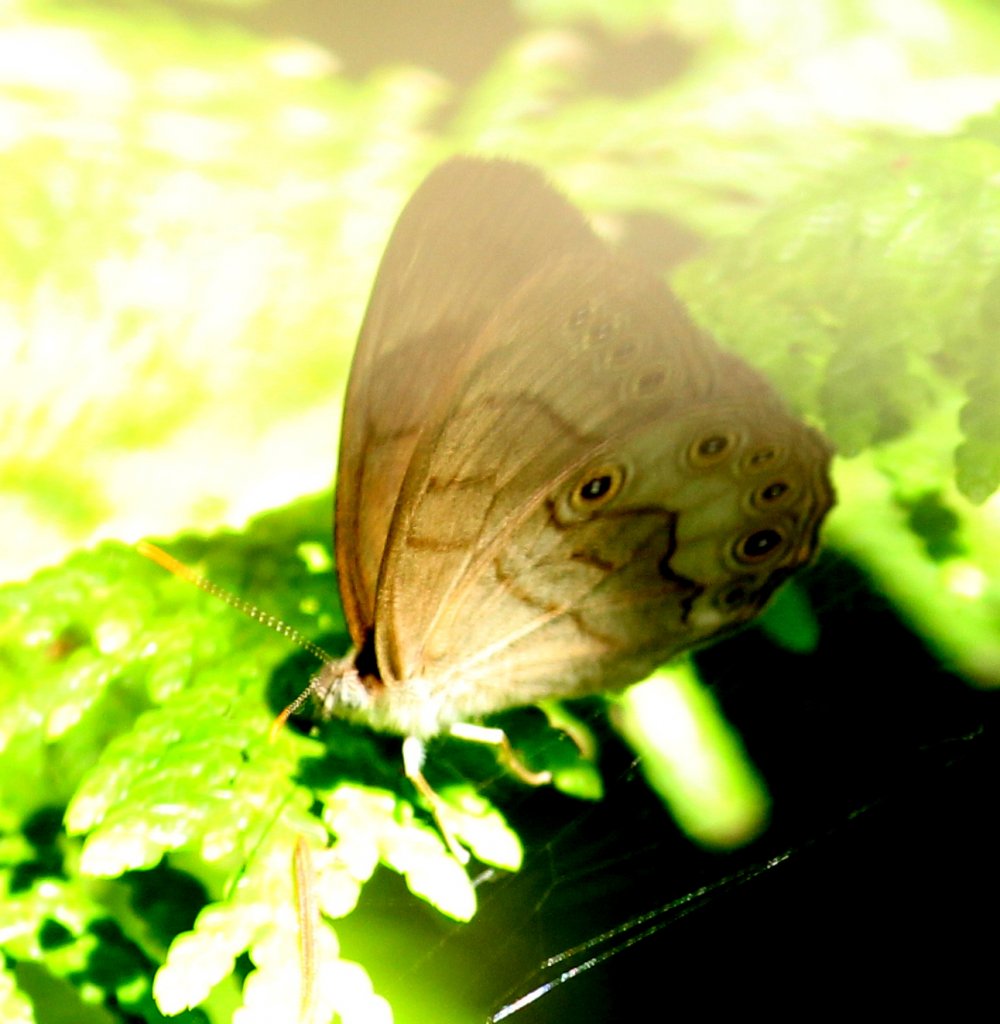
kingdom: Animalia
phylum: Arthropoda
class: Insecta
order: Lepidoptera
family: Nymphalidae
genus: Lethe
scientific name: Lethe eurydice
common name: Eyed Brown
